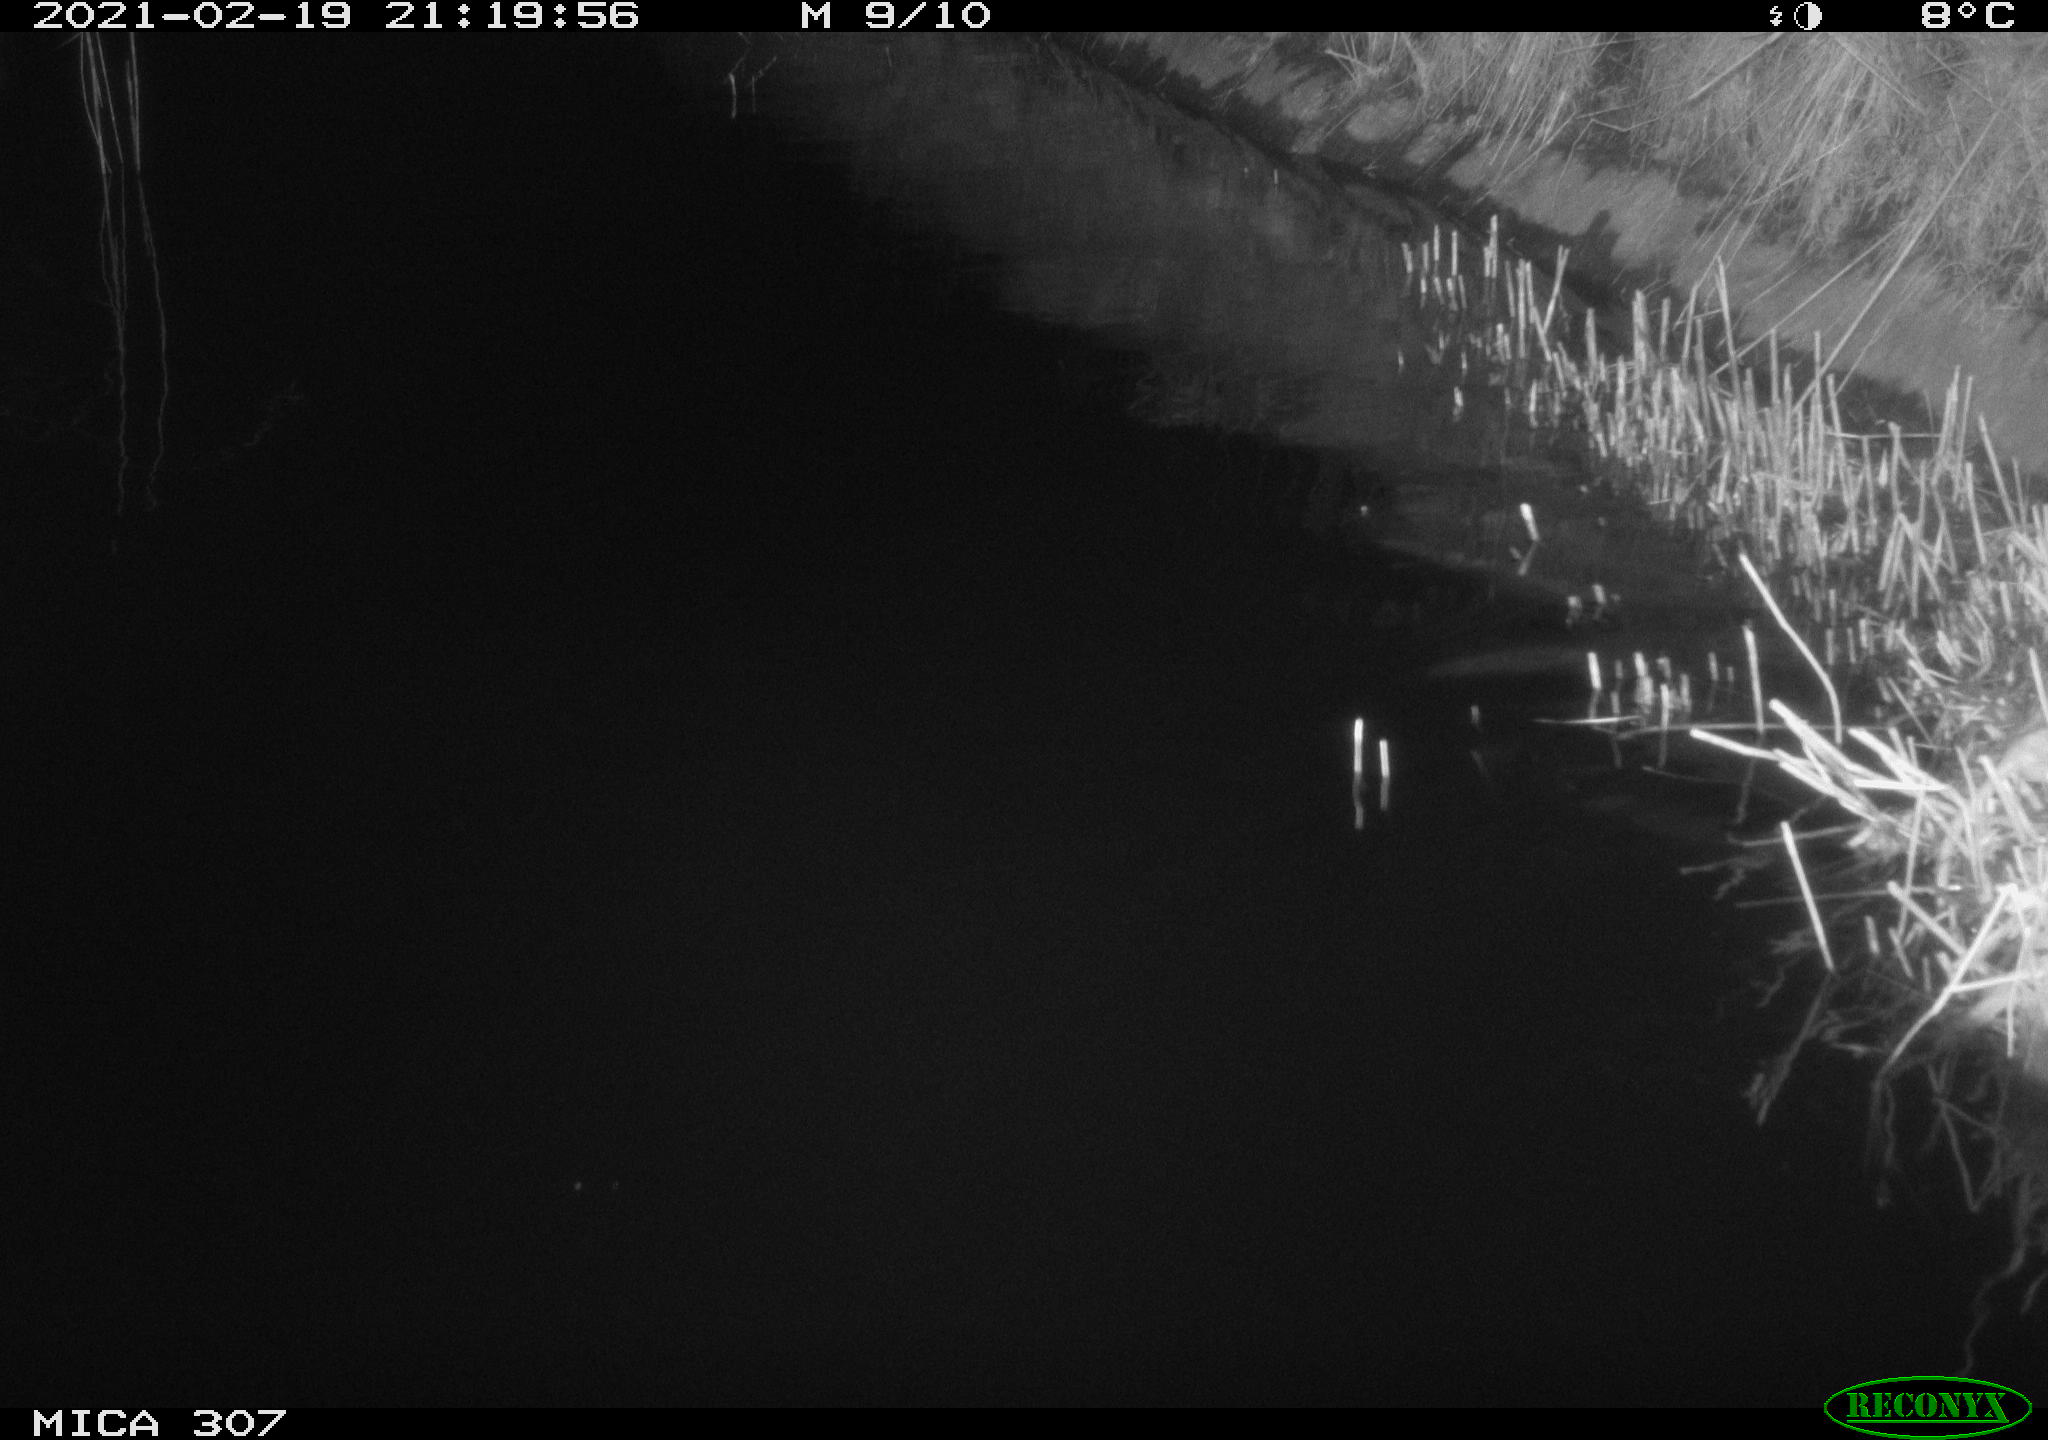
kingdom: Animalia
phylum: Chordata
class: Mammalia
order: Rodentia
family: Muridae
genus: Rattus
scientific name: Rattus norvegicus
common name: Brown rat
